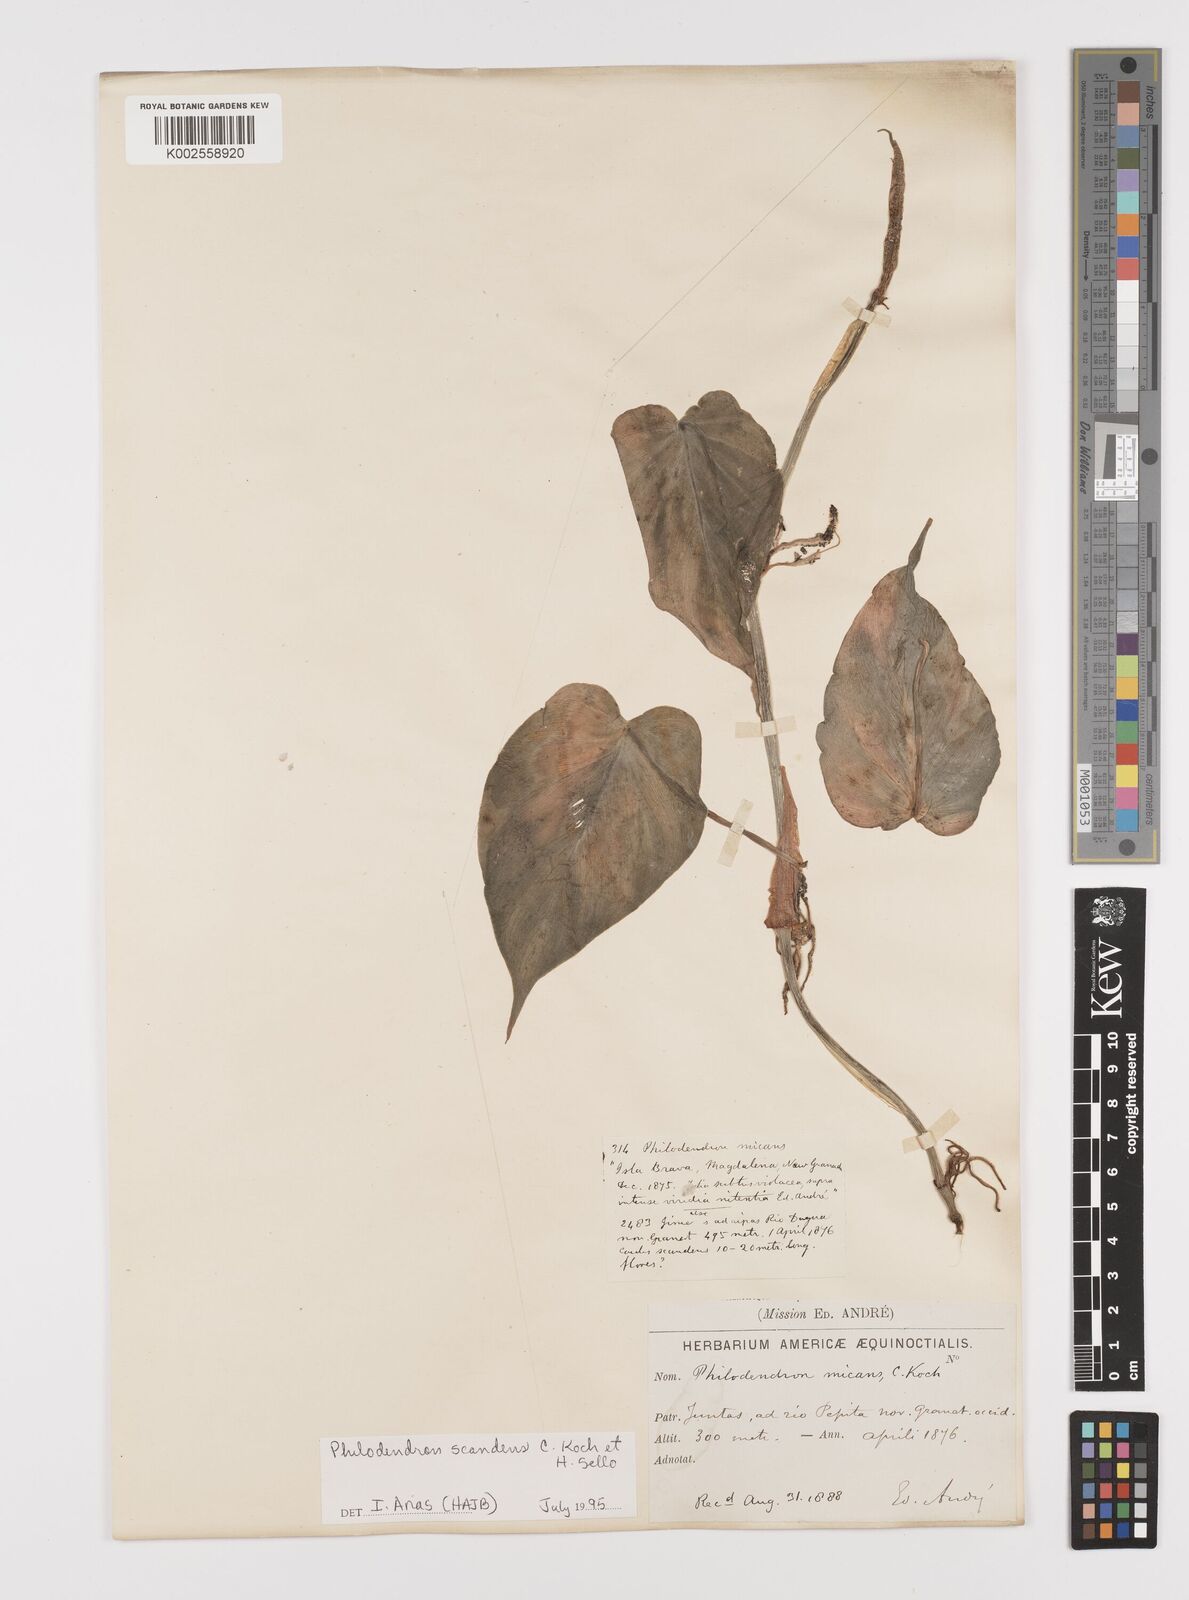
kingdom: Plantae
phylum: Tracheophyta
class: Liliopsida
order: Alismatales
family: Araceae
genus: Philodendron
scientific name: Philodendron hederaceum
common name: Vilevine
